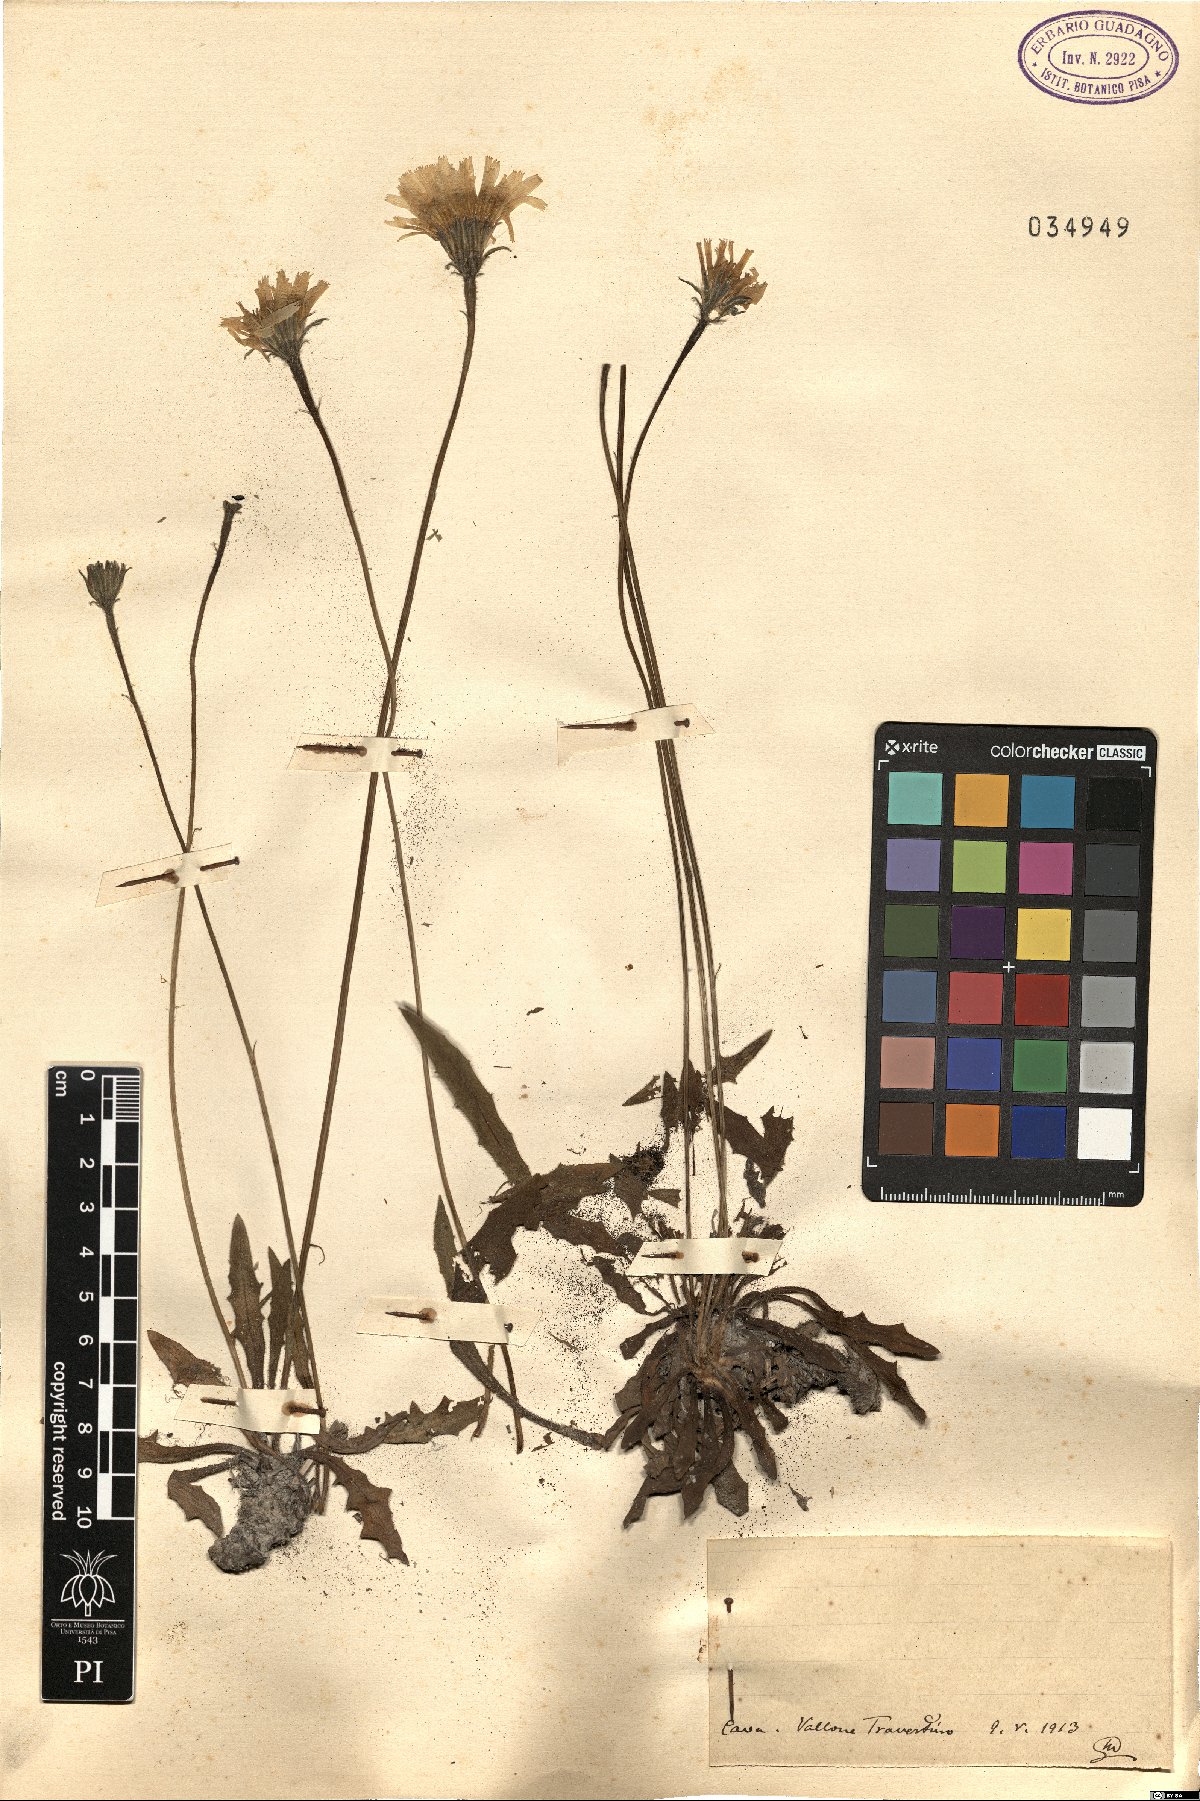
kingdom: Plantae
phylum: Tracheophyta
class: Magnoliopsida
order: Asterales
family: Asteraceae
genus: Leontodon
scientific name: Leontodon
